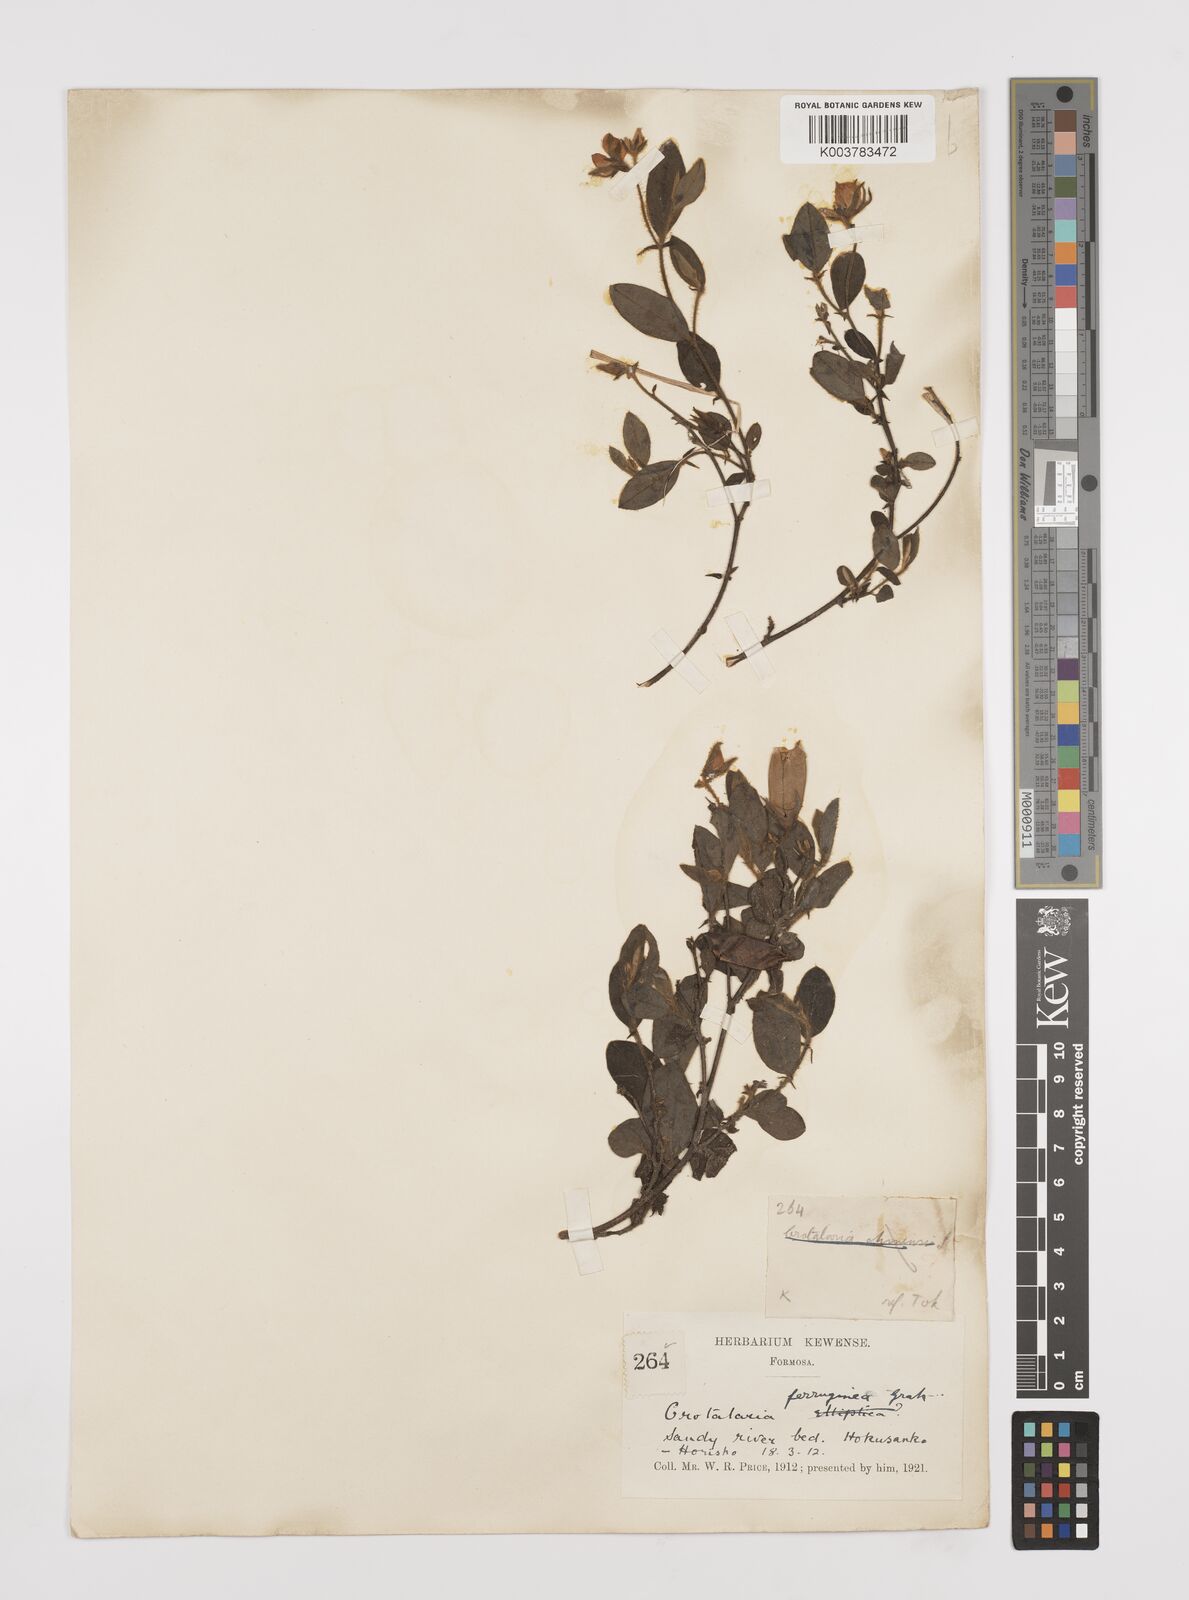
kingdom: Plantae
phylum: Tracheophyta
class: Magnoliopsida
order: Fabales
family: Fabaceae
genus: Crotalaria
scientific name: Crotalaria lejoloba
